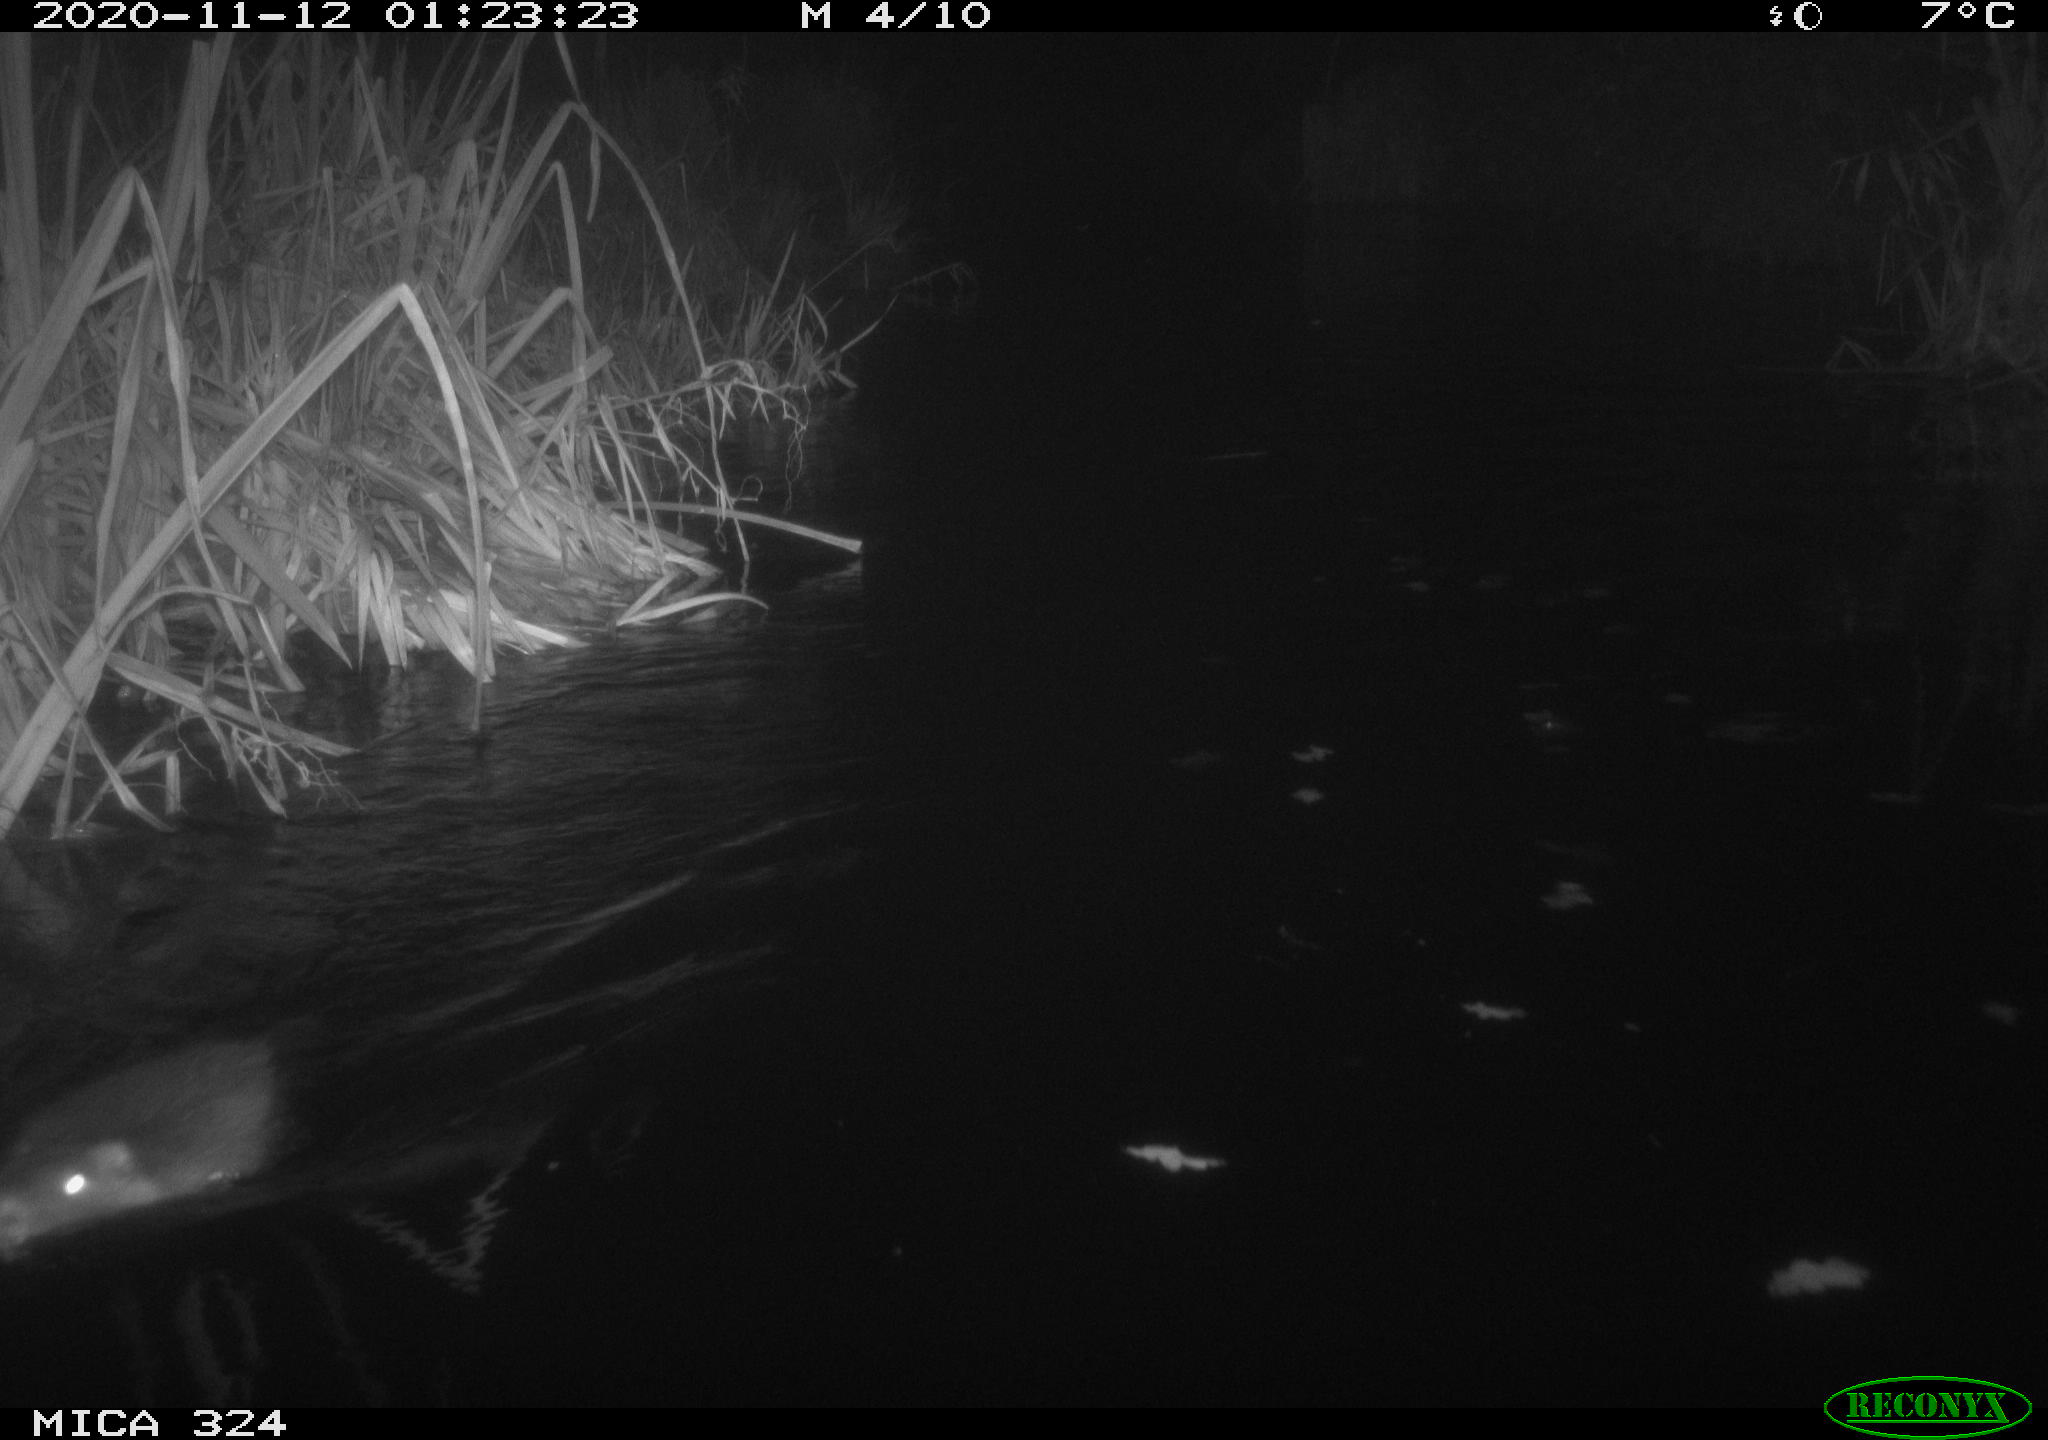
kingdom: Animalia
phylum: Chordata
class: Mammalia
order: Rodentia
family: Myocastoridae
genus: Myocastor
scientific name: Myocastor coypus
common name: Coypu
